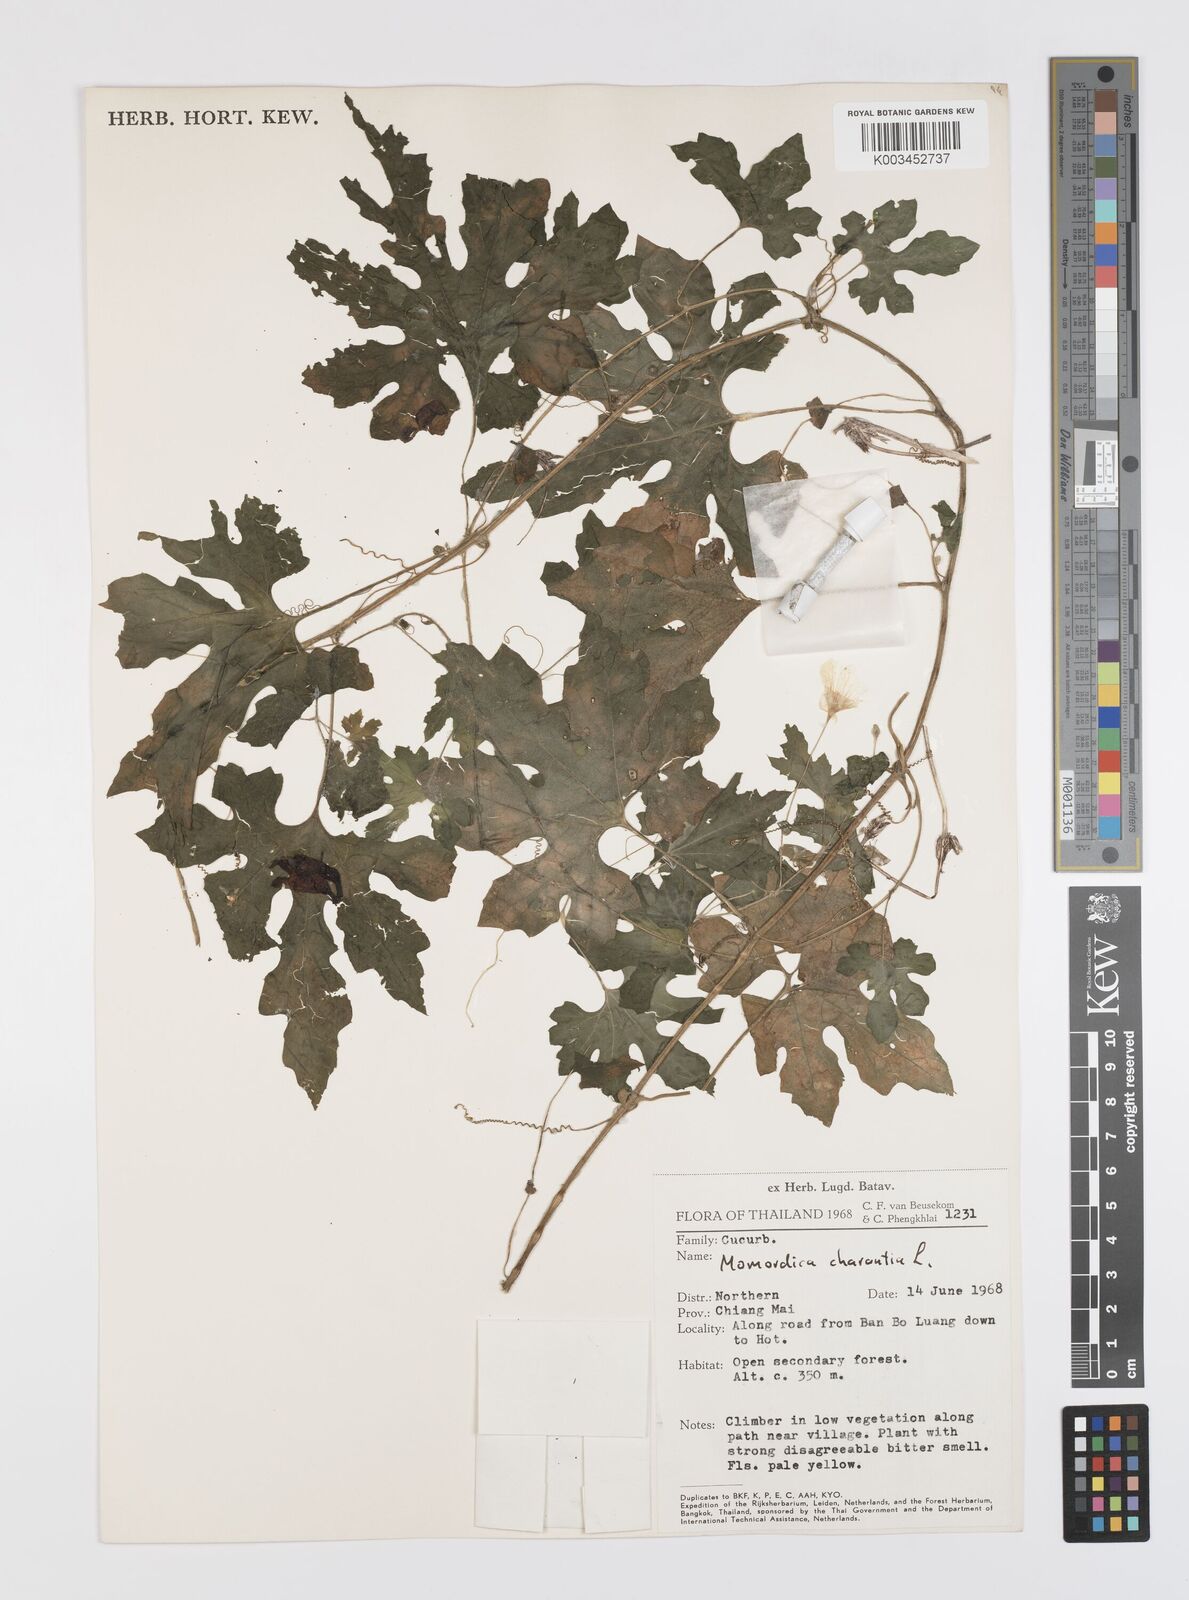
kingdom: Plantae
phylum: Tracheophyta
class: Magnoliopsida
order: Cucurbitales
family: Cucurbitaceae
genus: Momordica
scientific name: Momordica charantia
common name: Balsampear
